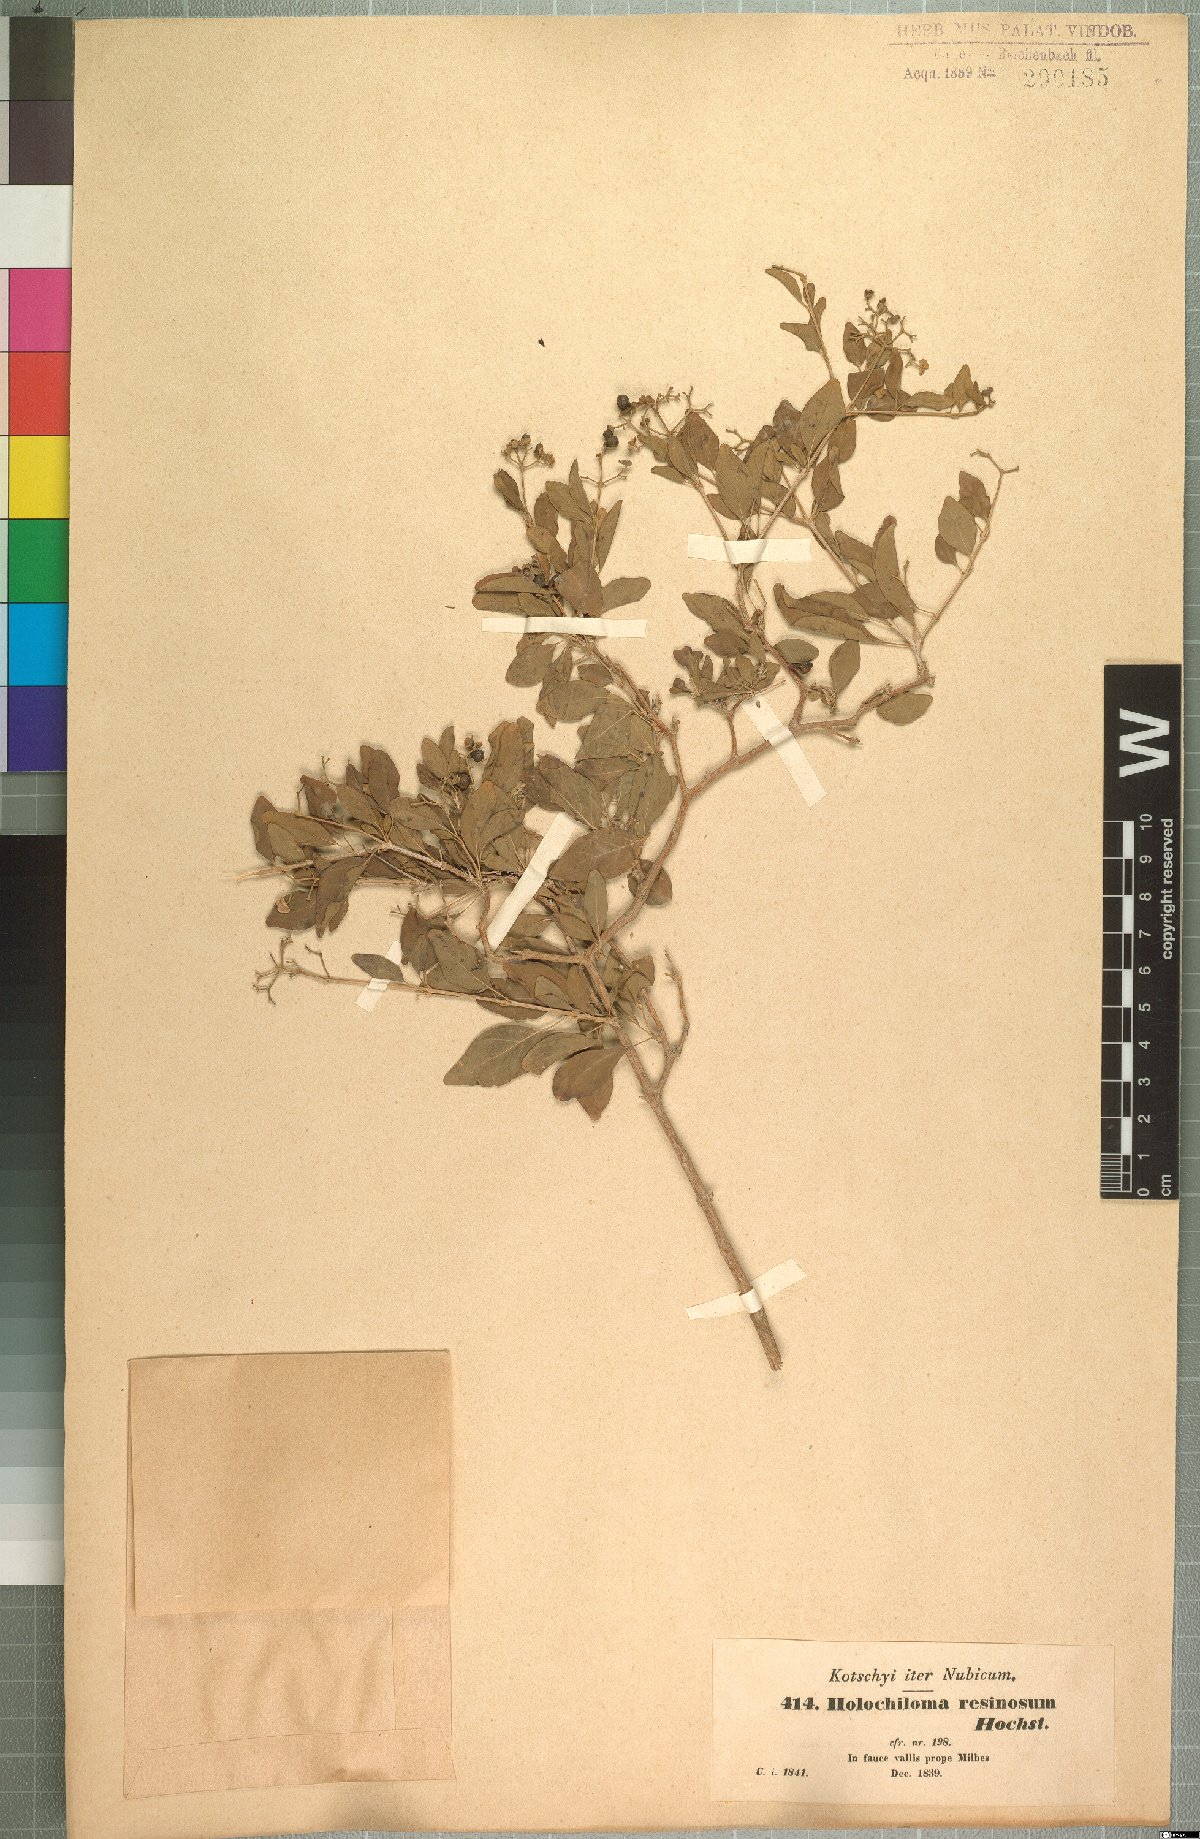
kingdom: Plantae
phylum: Tracheophyta
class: Magnoliopsida
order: Lamiales
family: Lamiaceae
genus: Premna
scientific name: Premna resinosa
